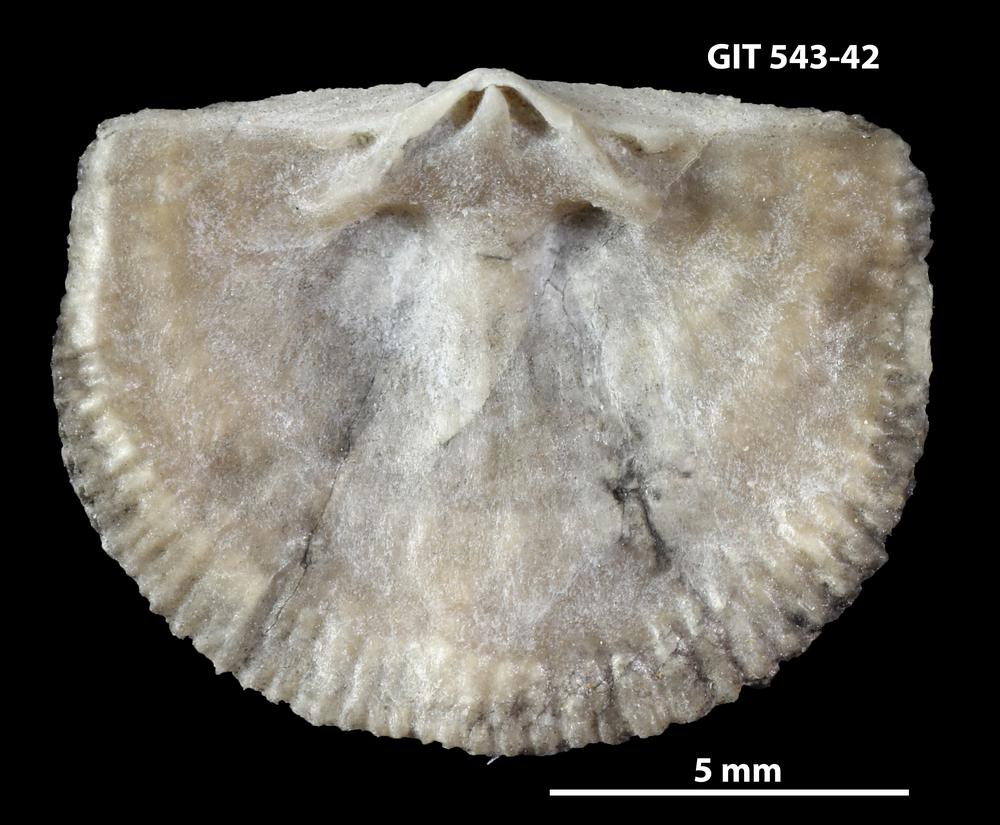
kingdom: Animalia
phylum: Brachiopoda
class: Rhynchonellata
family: Clitambonitidae
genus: Clitambonites
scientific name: Clitambonites Orthisina schmidti
